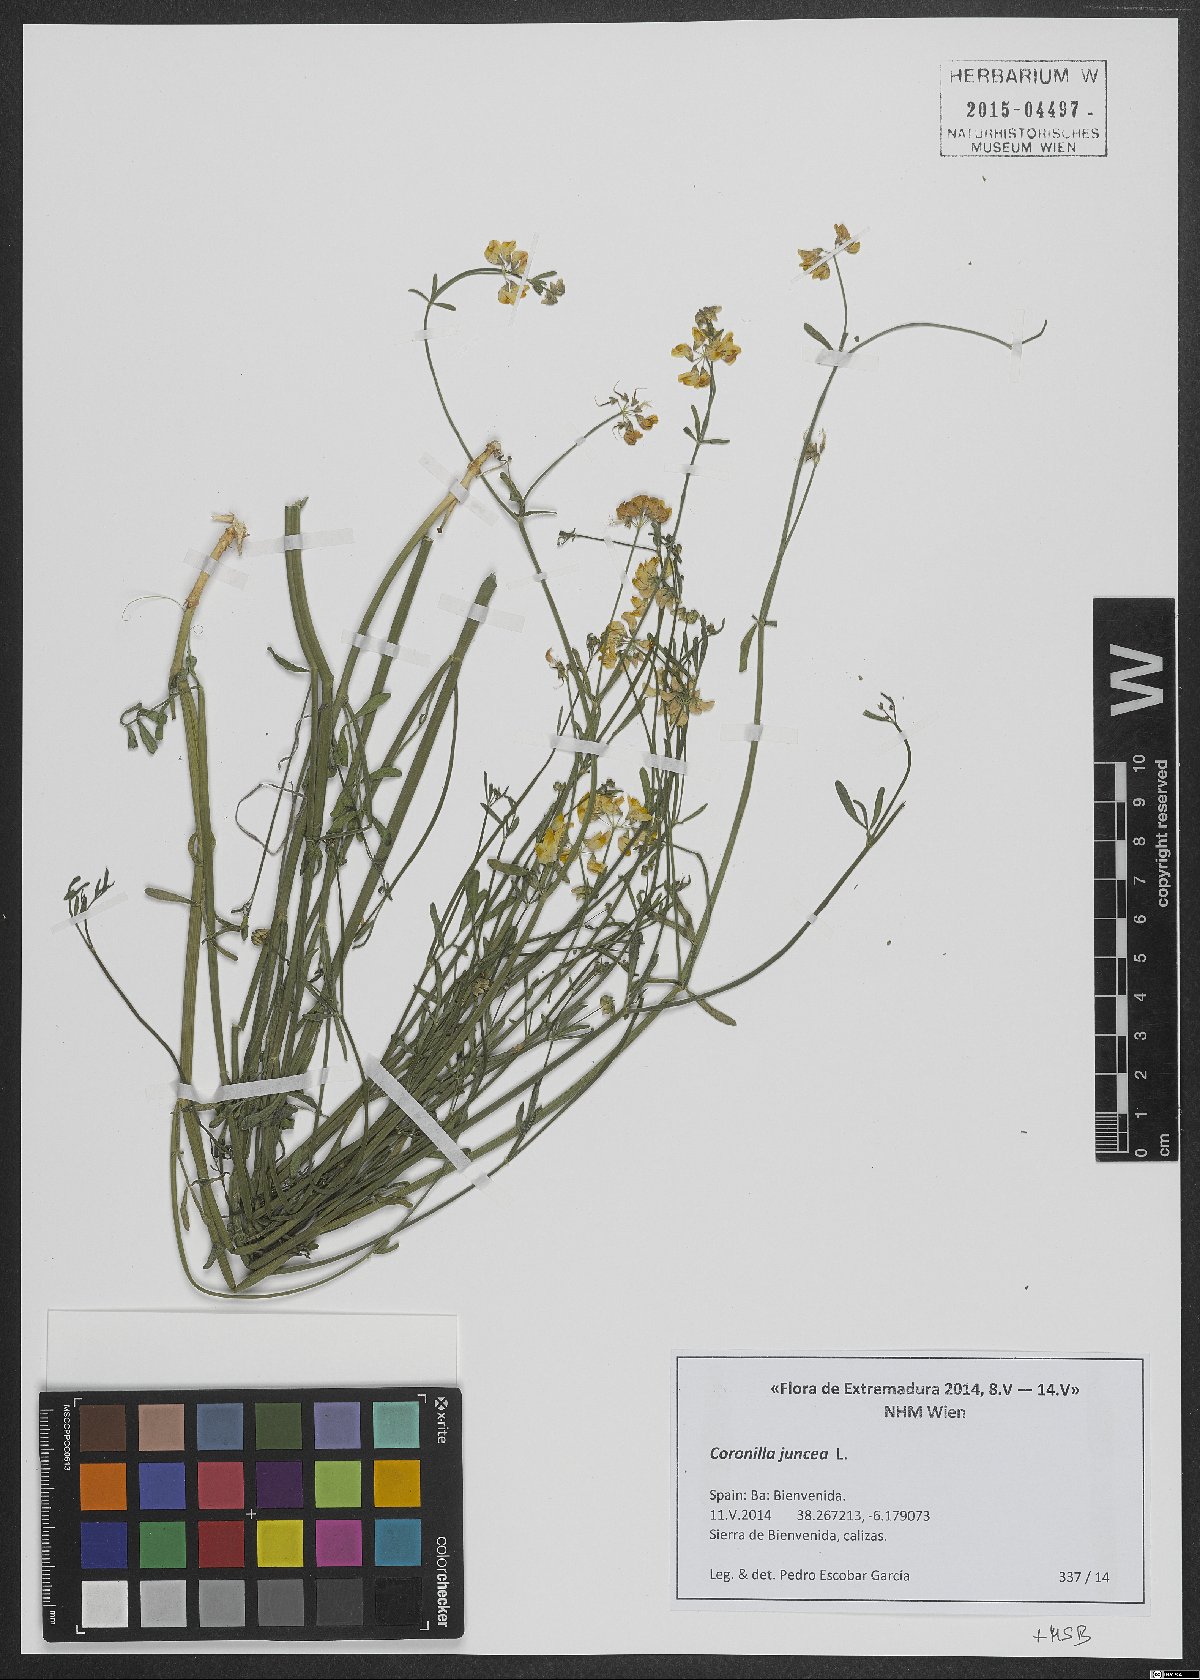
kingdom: Plantae
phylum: Tracheophyta
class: Magnoliopsida
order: Fabales
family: Fabaceae
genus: Coronilla
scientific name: Coronilla juncea
